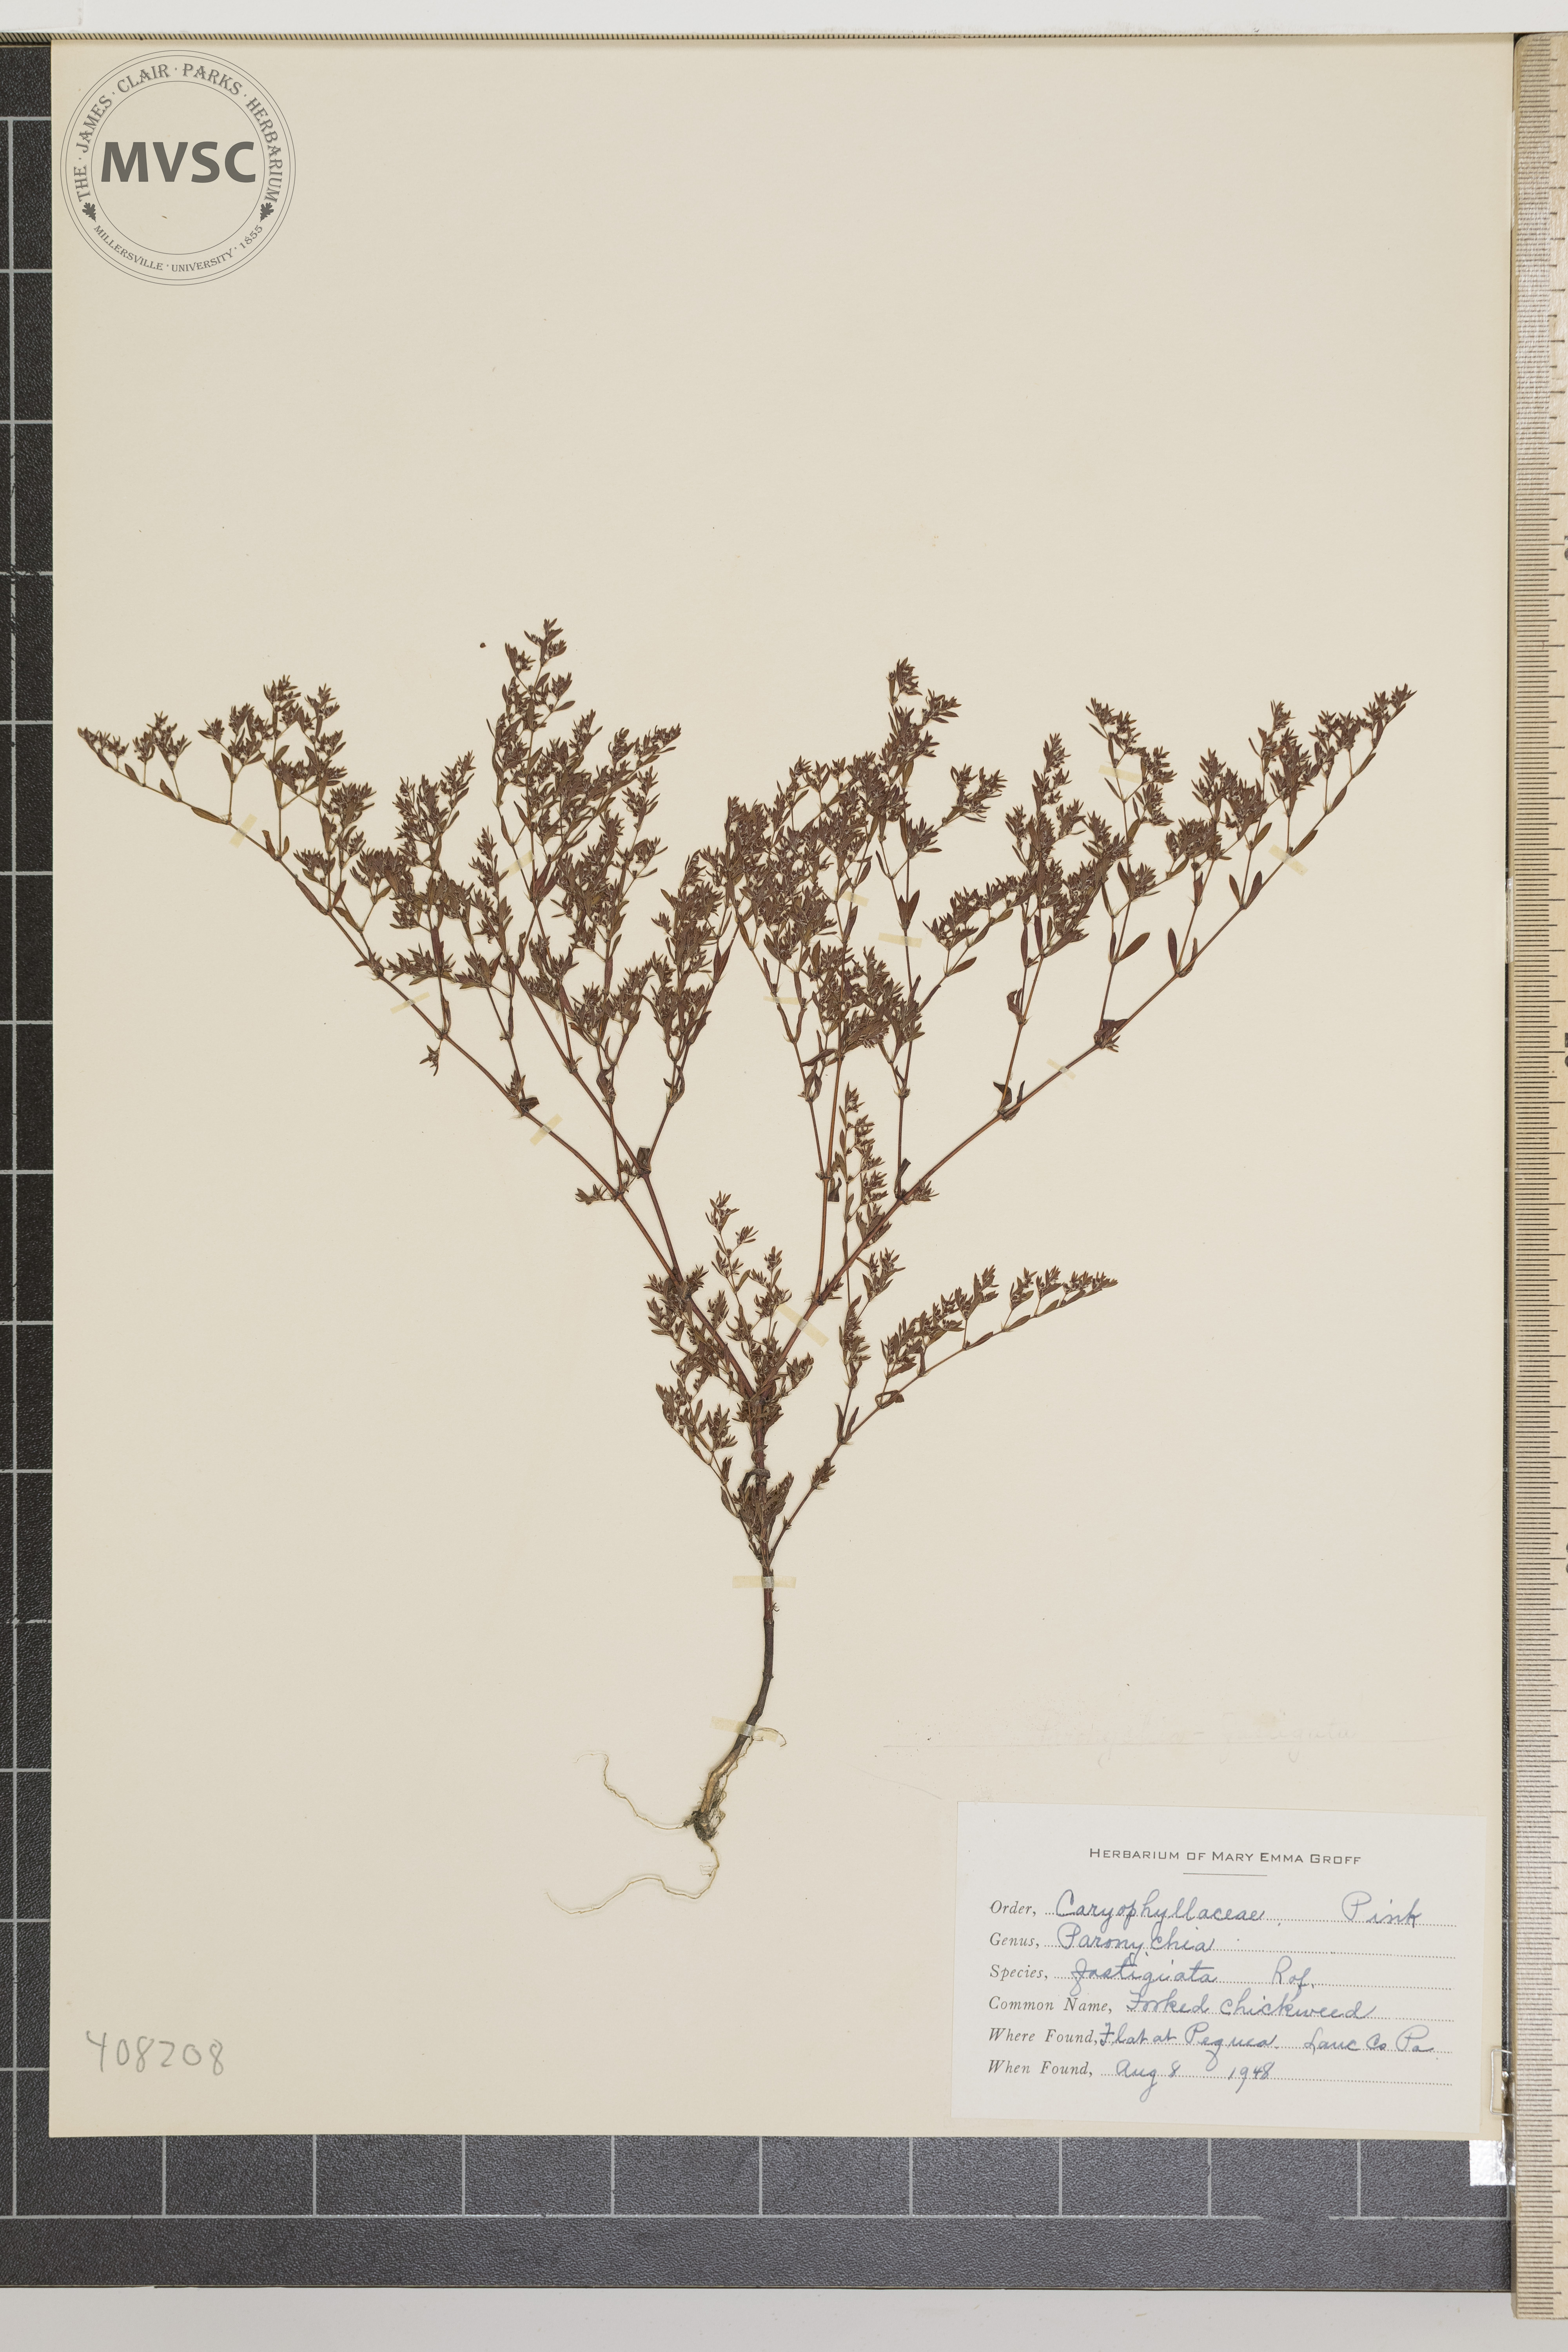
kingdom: Plantae
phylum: Tracheophyta
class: Magnoliopsida
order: Caryophyllales
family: Caryophyllaceae
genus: Paronychia
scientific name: Paronychia fastigiata
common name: Forked chickweed
